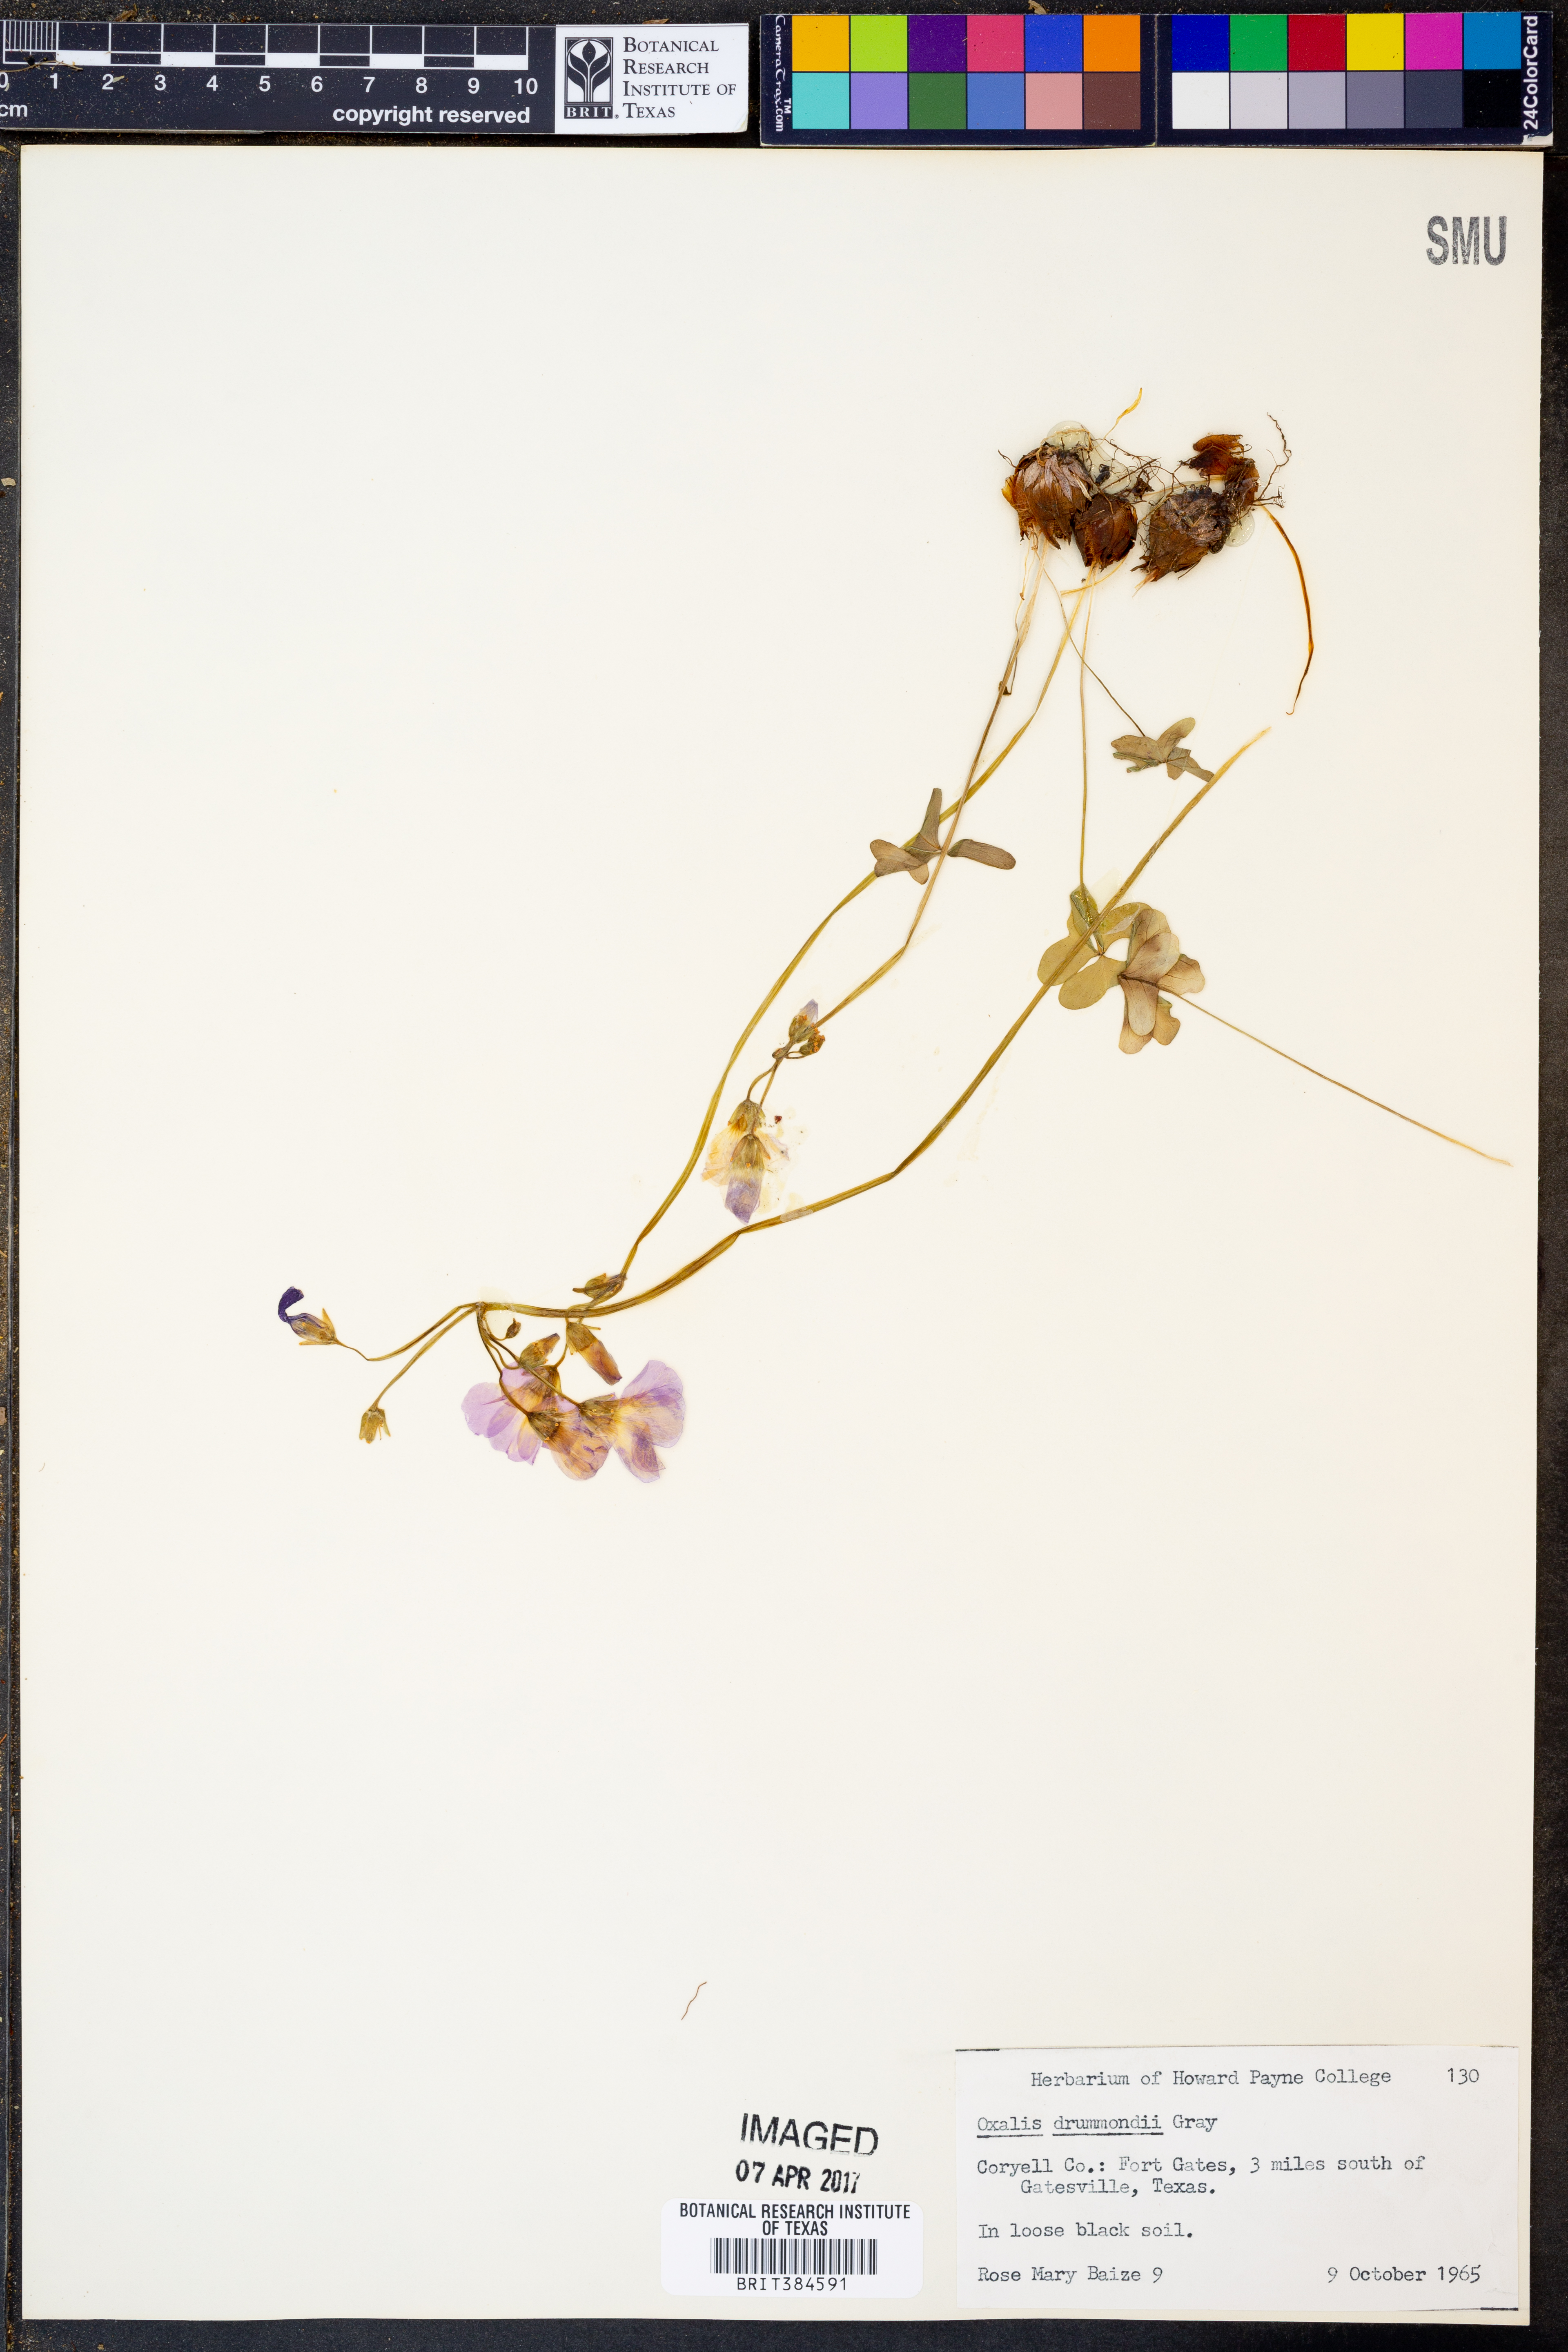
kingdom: Plantae
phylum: Tracheophyta
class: Magnoliopsida
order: Oxalidales
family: Oxalidaceae
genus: Oxalis
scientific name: Oxalis drummondii
